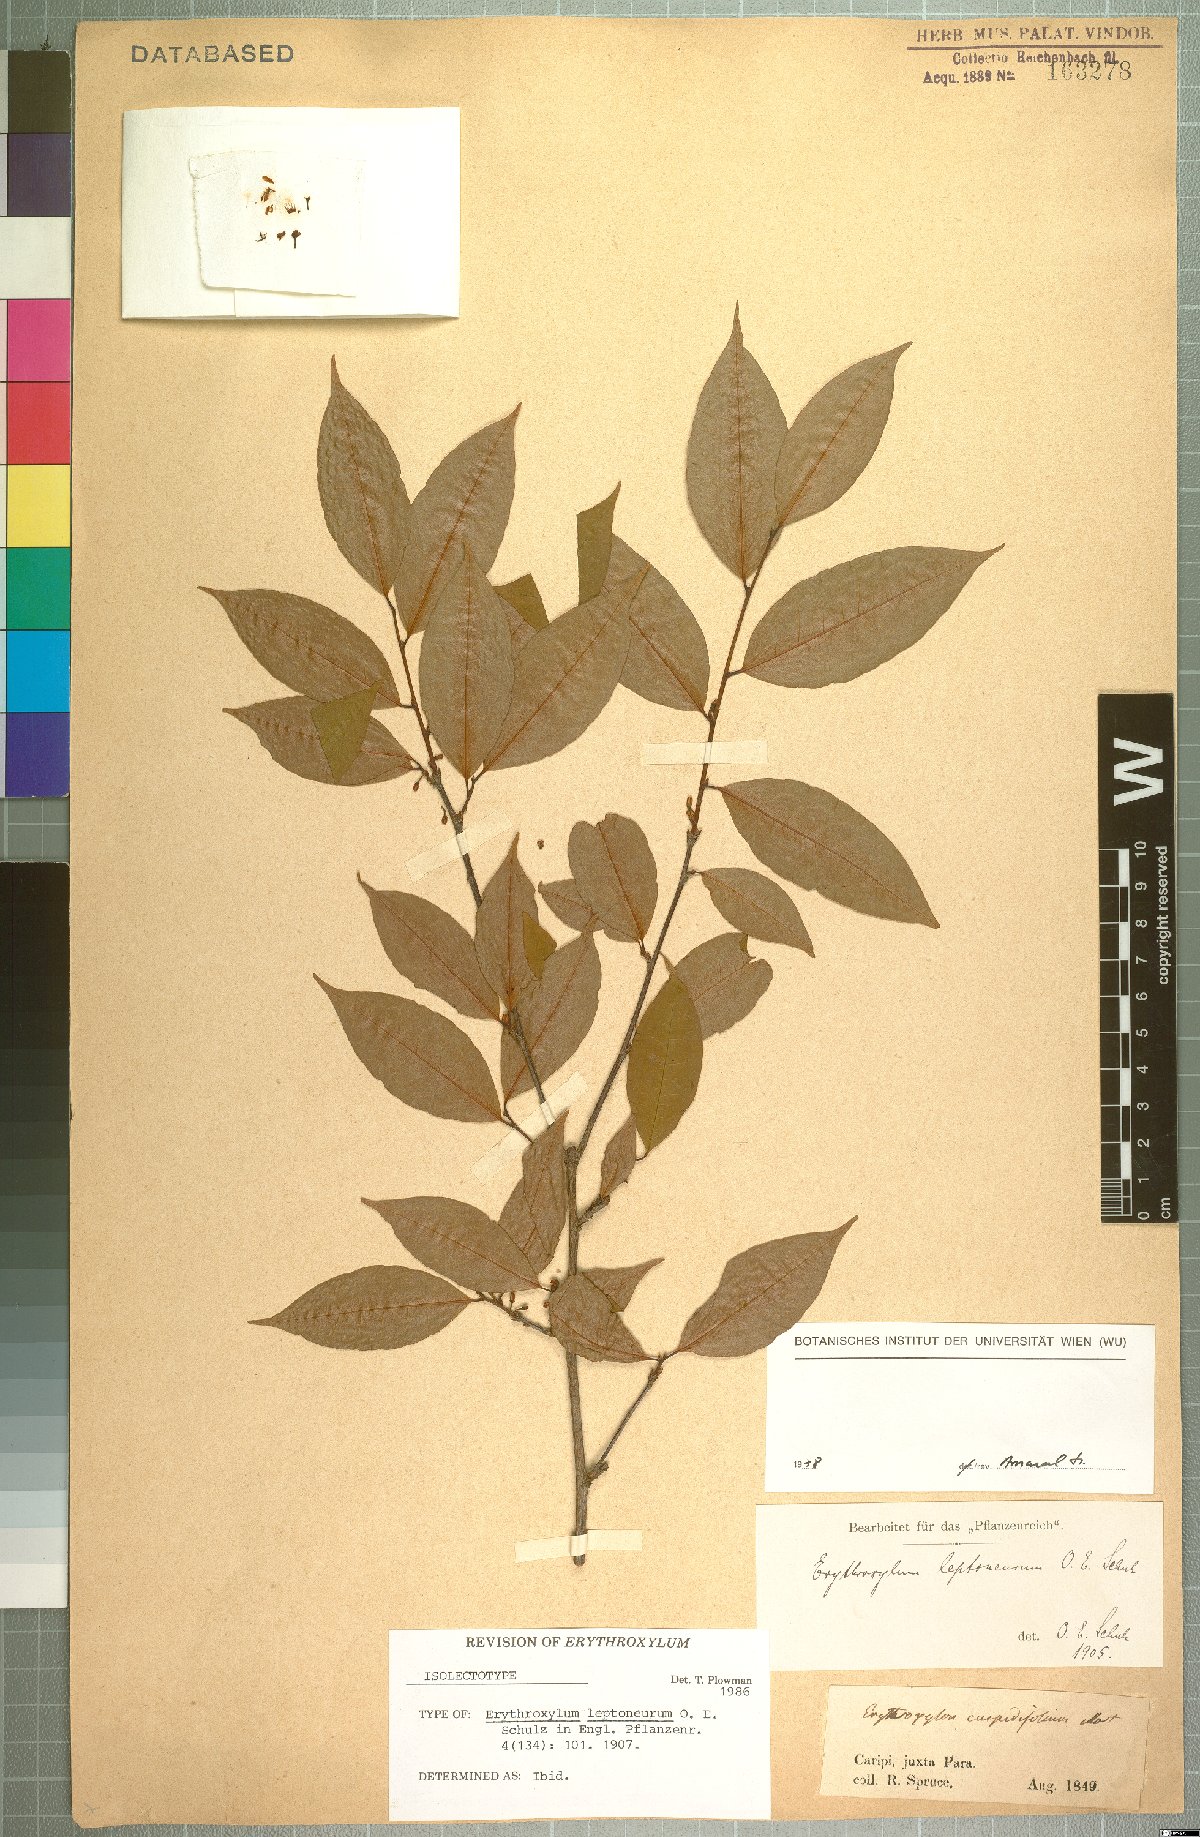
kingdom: Plantae
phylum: Tracheophyta
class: Magnoliopsida
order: Malpighiales
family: Erythroxylaceae
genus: Erythroxylum
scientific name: Erythroxylum leptoneurum
